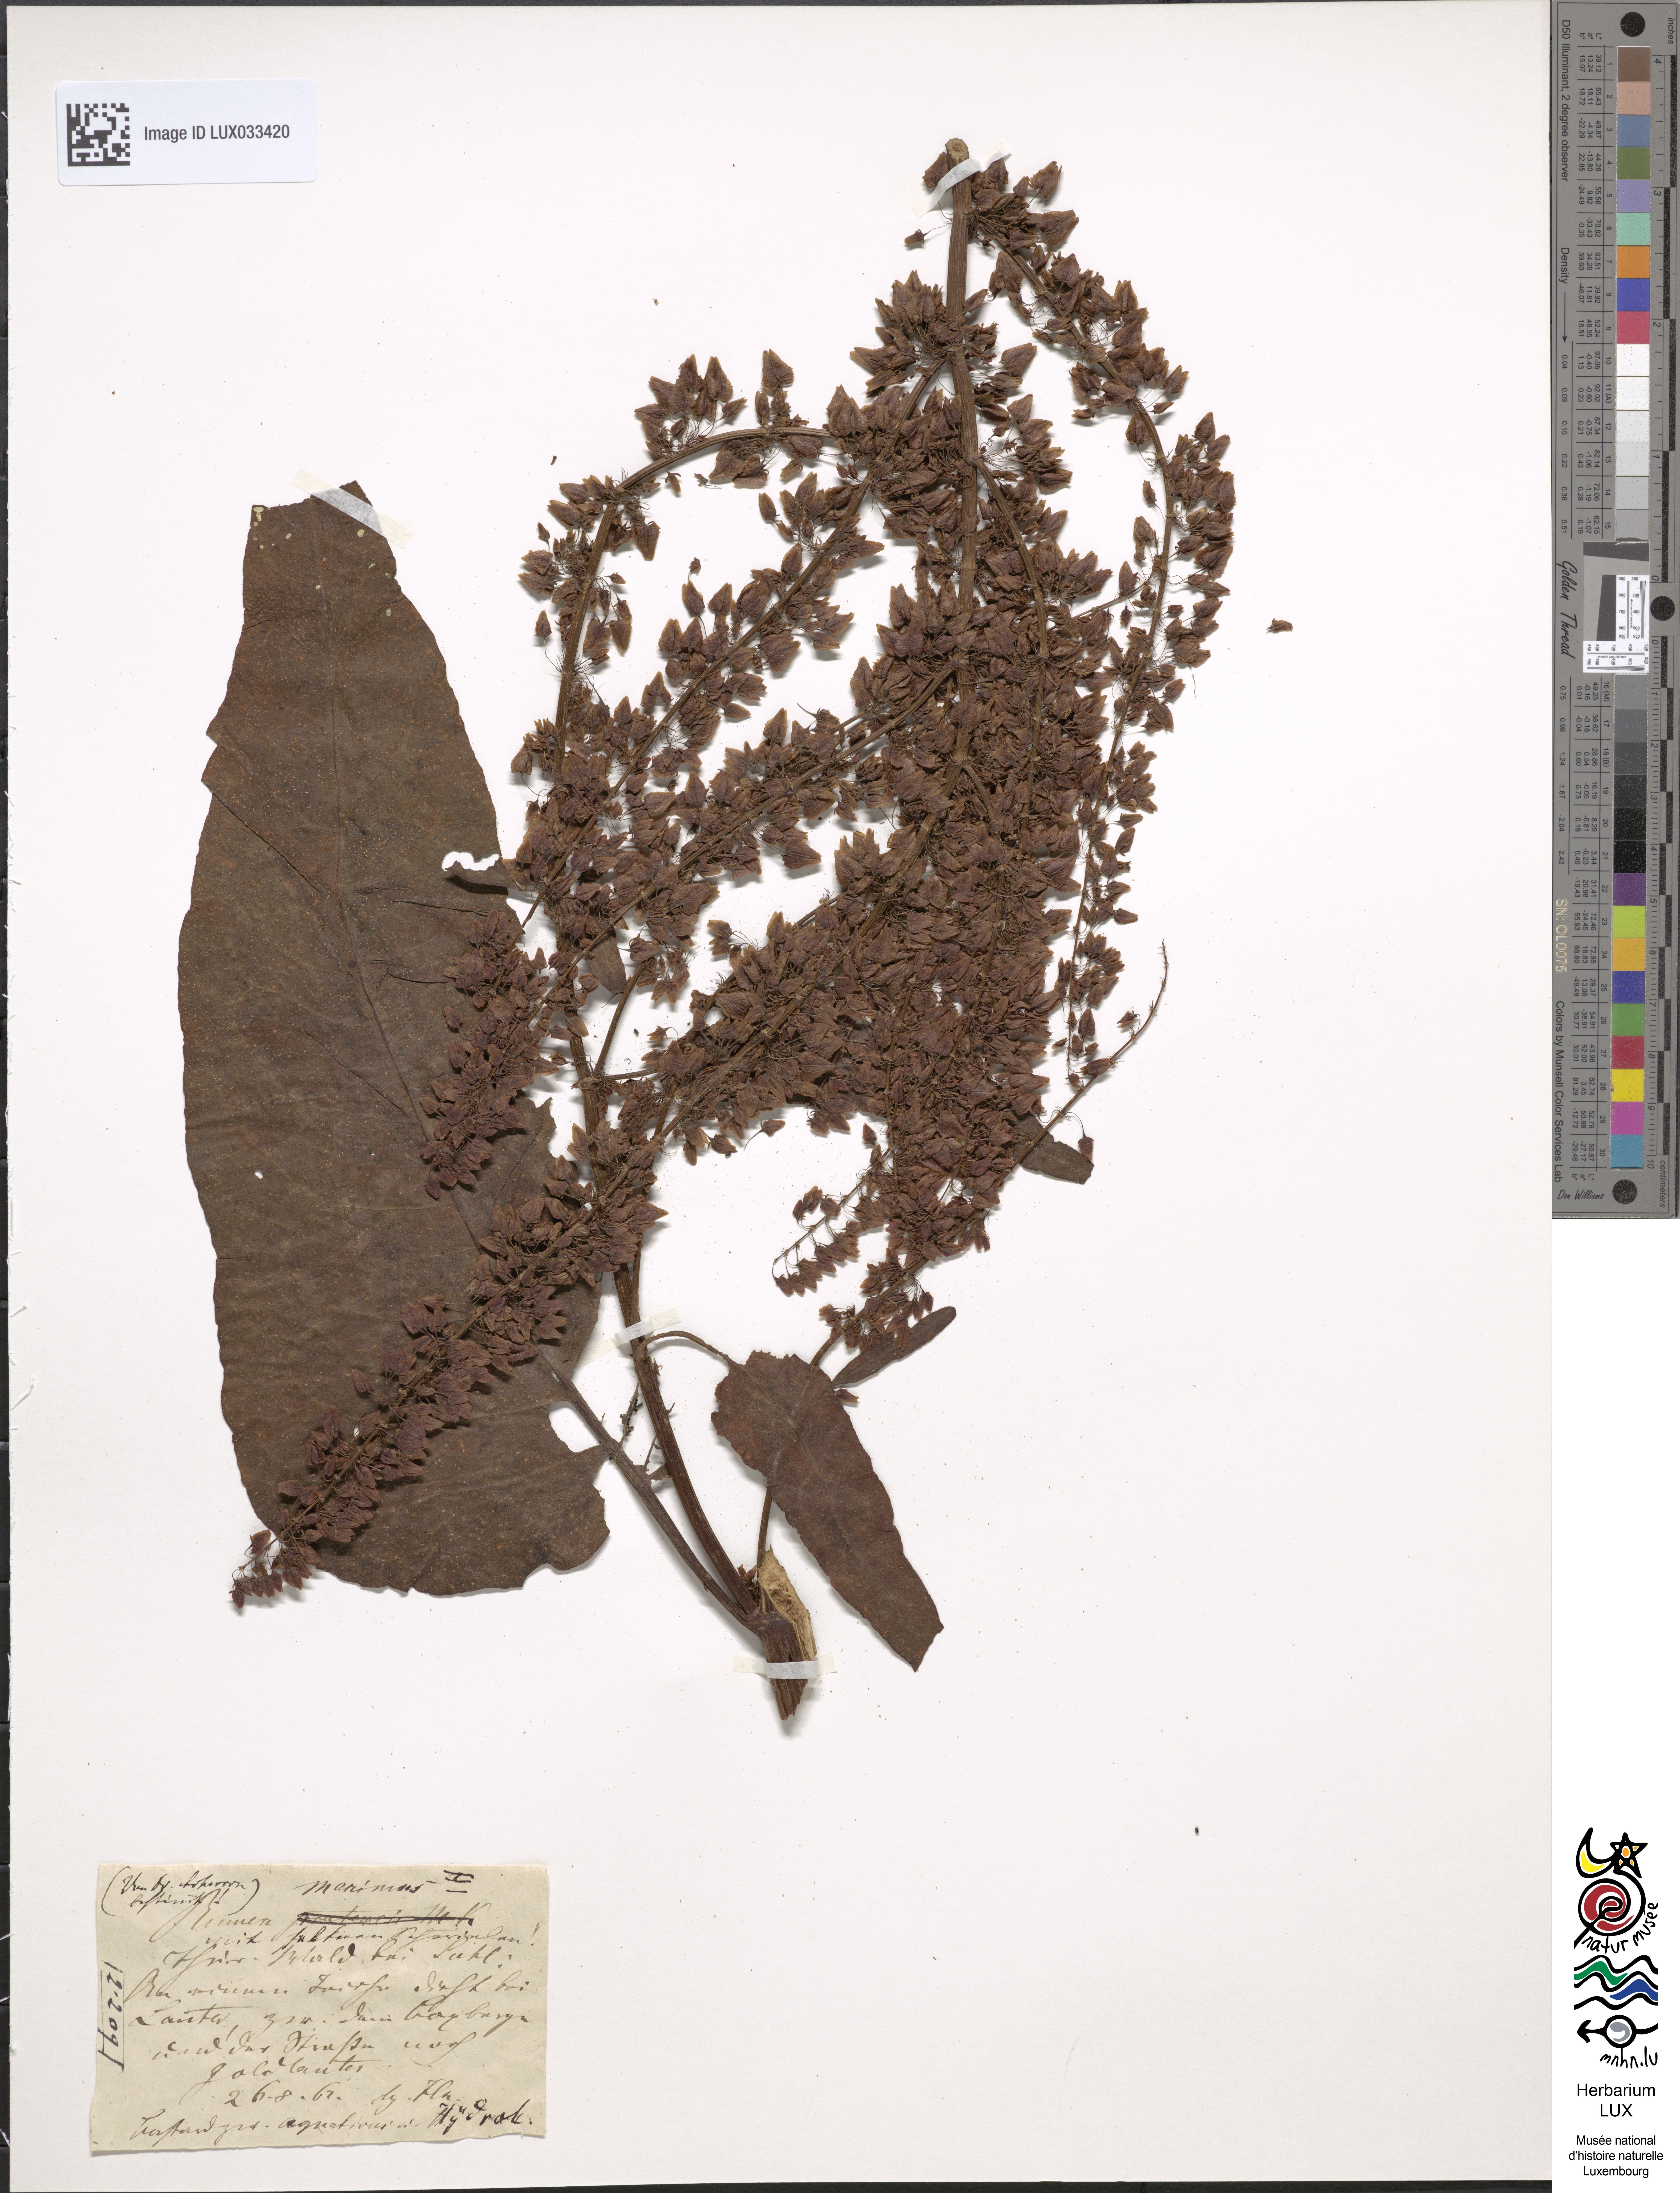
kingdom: Plantae
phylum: Tracheophyta
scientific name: Tracheophyta
